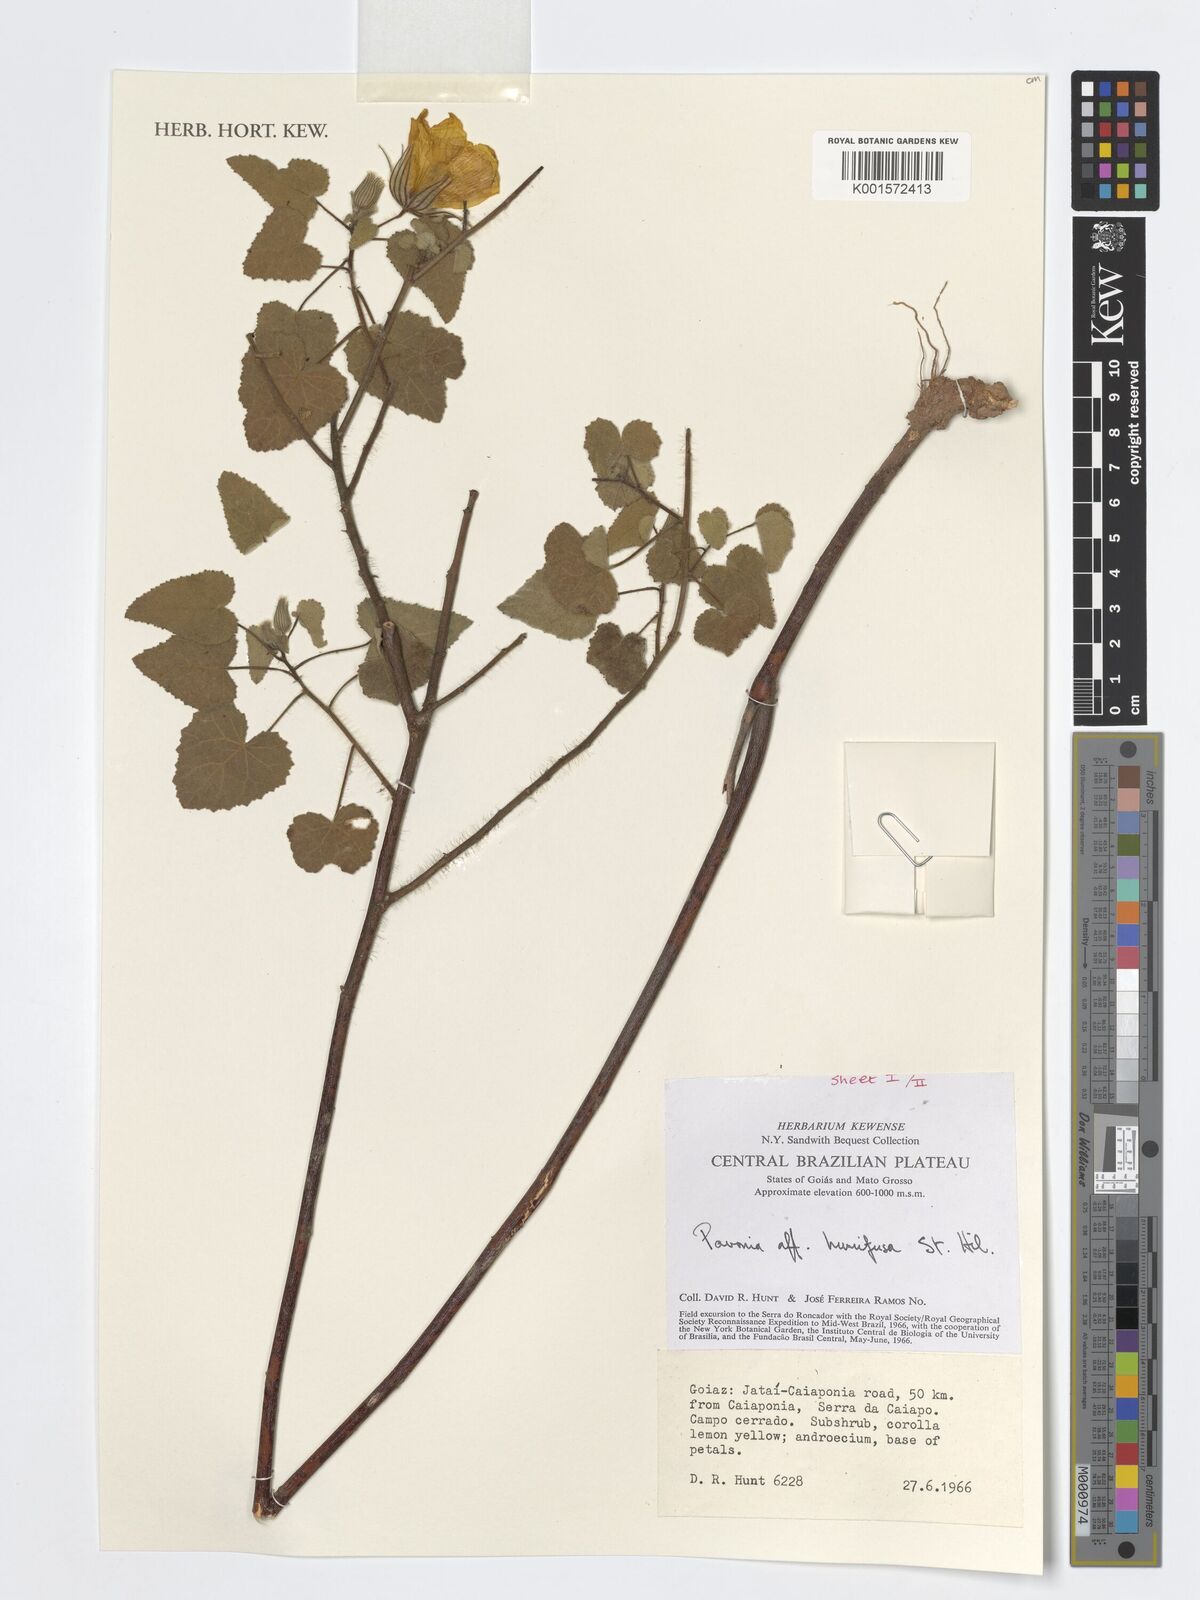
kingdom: Plantae
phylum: Tracheophyta
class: Magnoliopsida
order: Malvales
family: Malvaceae
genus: Pavonia
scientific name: Pavonia humifusa
